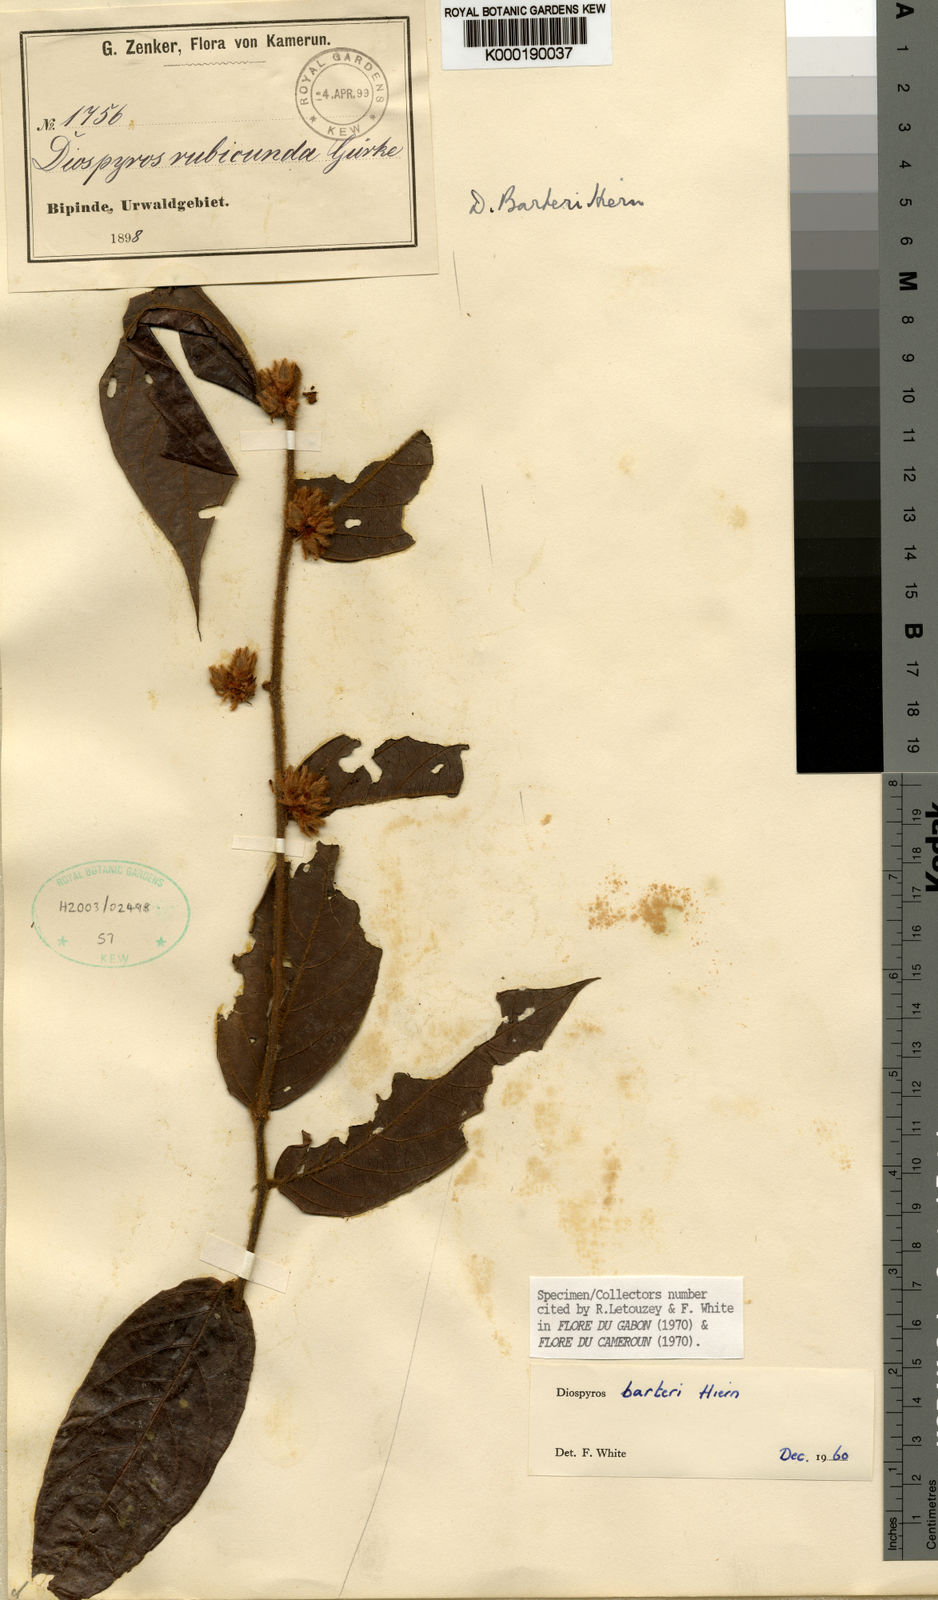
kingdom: Plantae
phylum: Tracheophyta
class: Magnoliopsida
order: Ericales
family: Ebenaceae
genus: Diospyros
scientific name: Diospyros barteri
